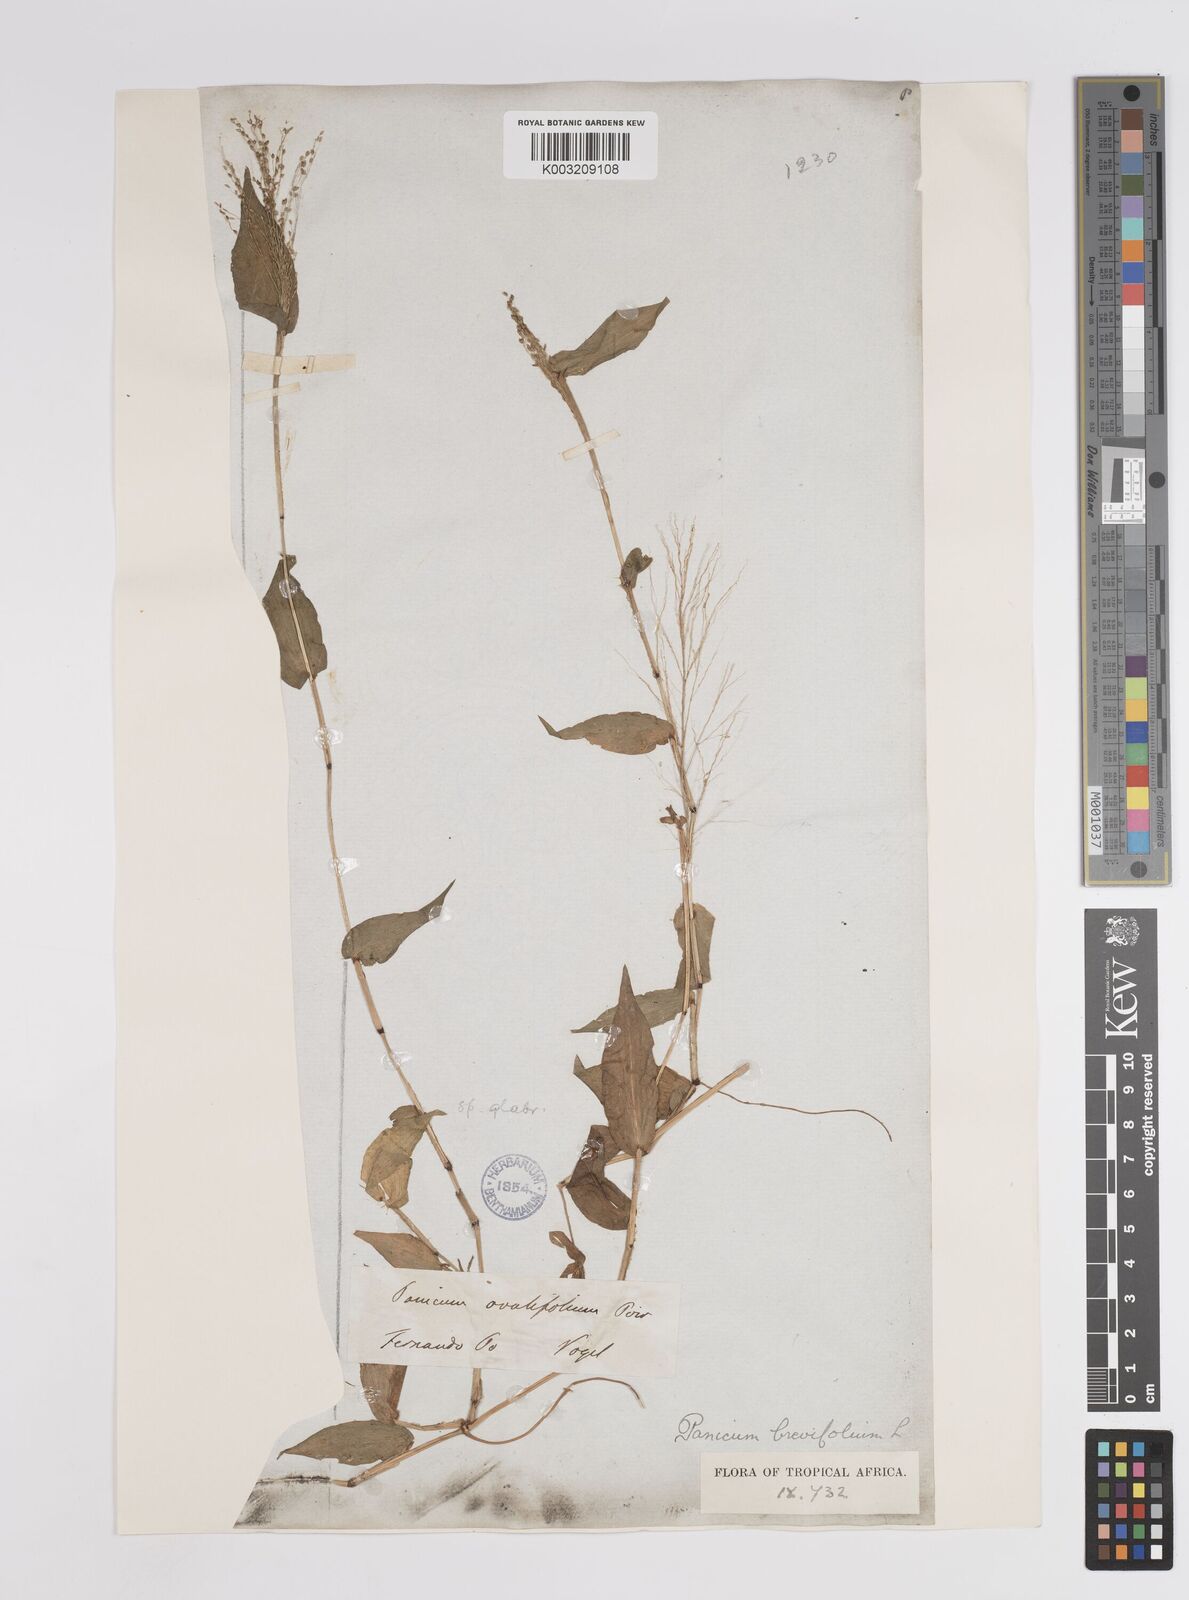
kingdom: Plantae
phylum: Tracheophyta
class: Liliopsida
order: Poales
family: Poaceae
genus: Panicum
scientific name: Panicum brevifolium
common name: Shortleaf panic grass
